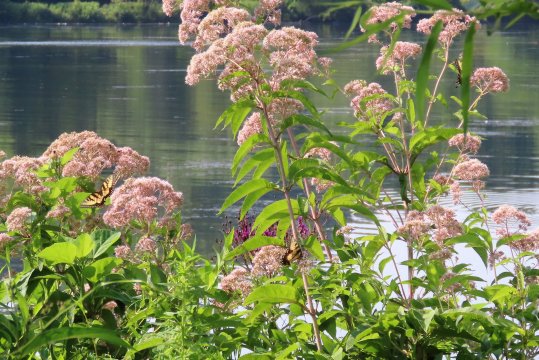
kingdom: Animalia
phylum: Arthropoda
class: Insecta
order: Lepidoptera
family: Papilionidae
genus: Pterourus
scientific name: Pterourus glaucus
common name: Eastern Tiger Swallowtail
